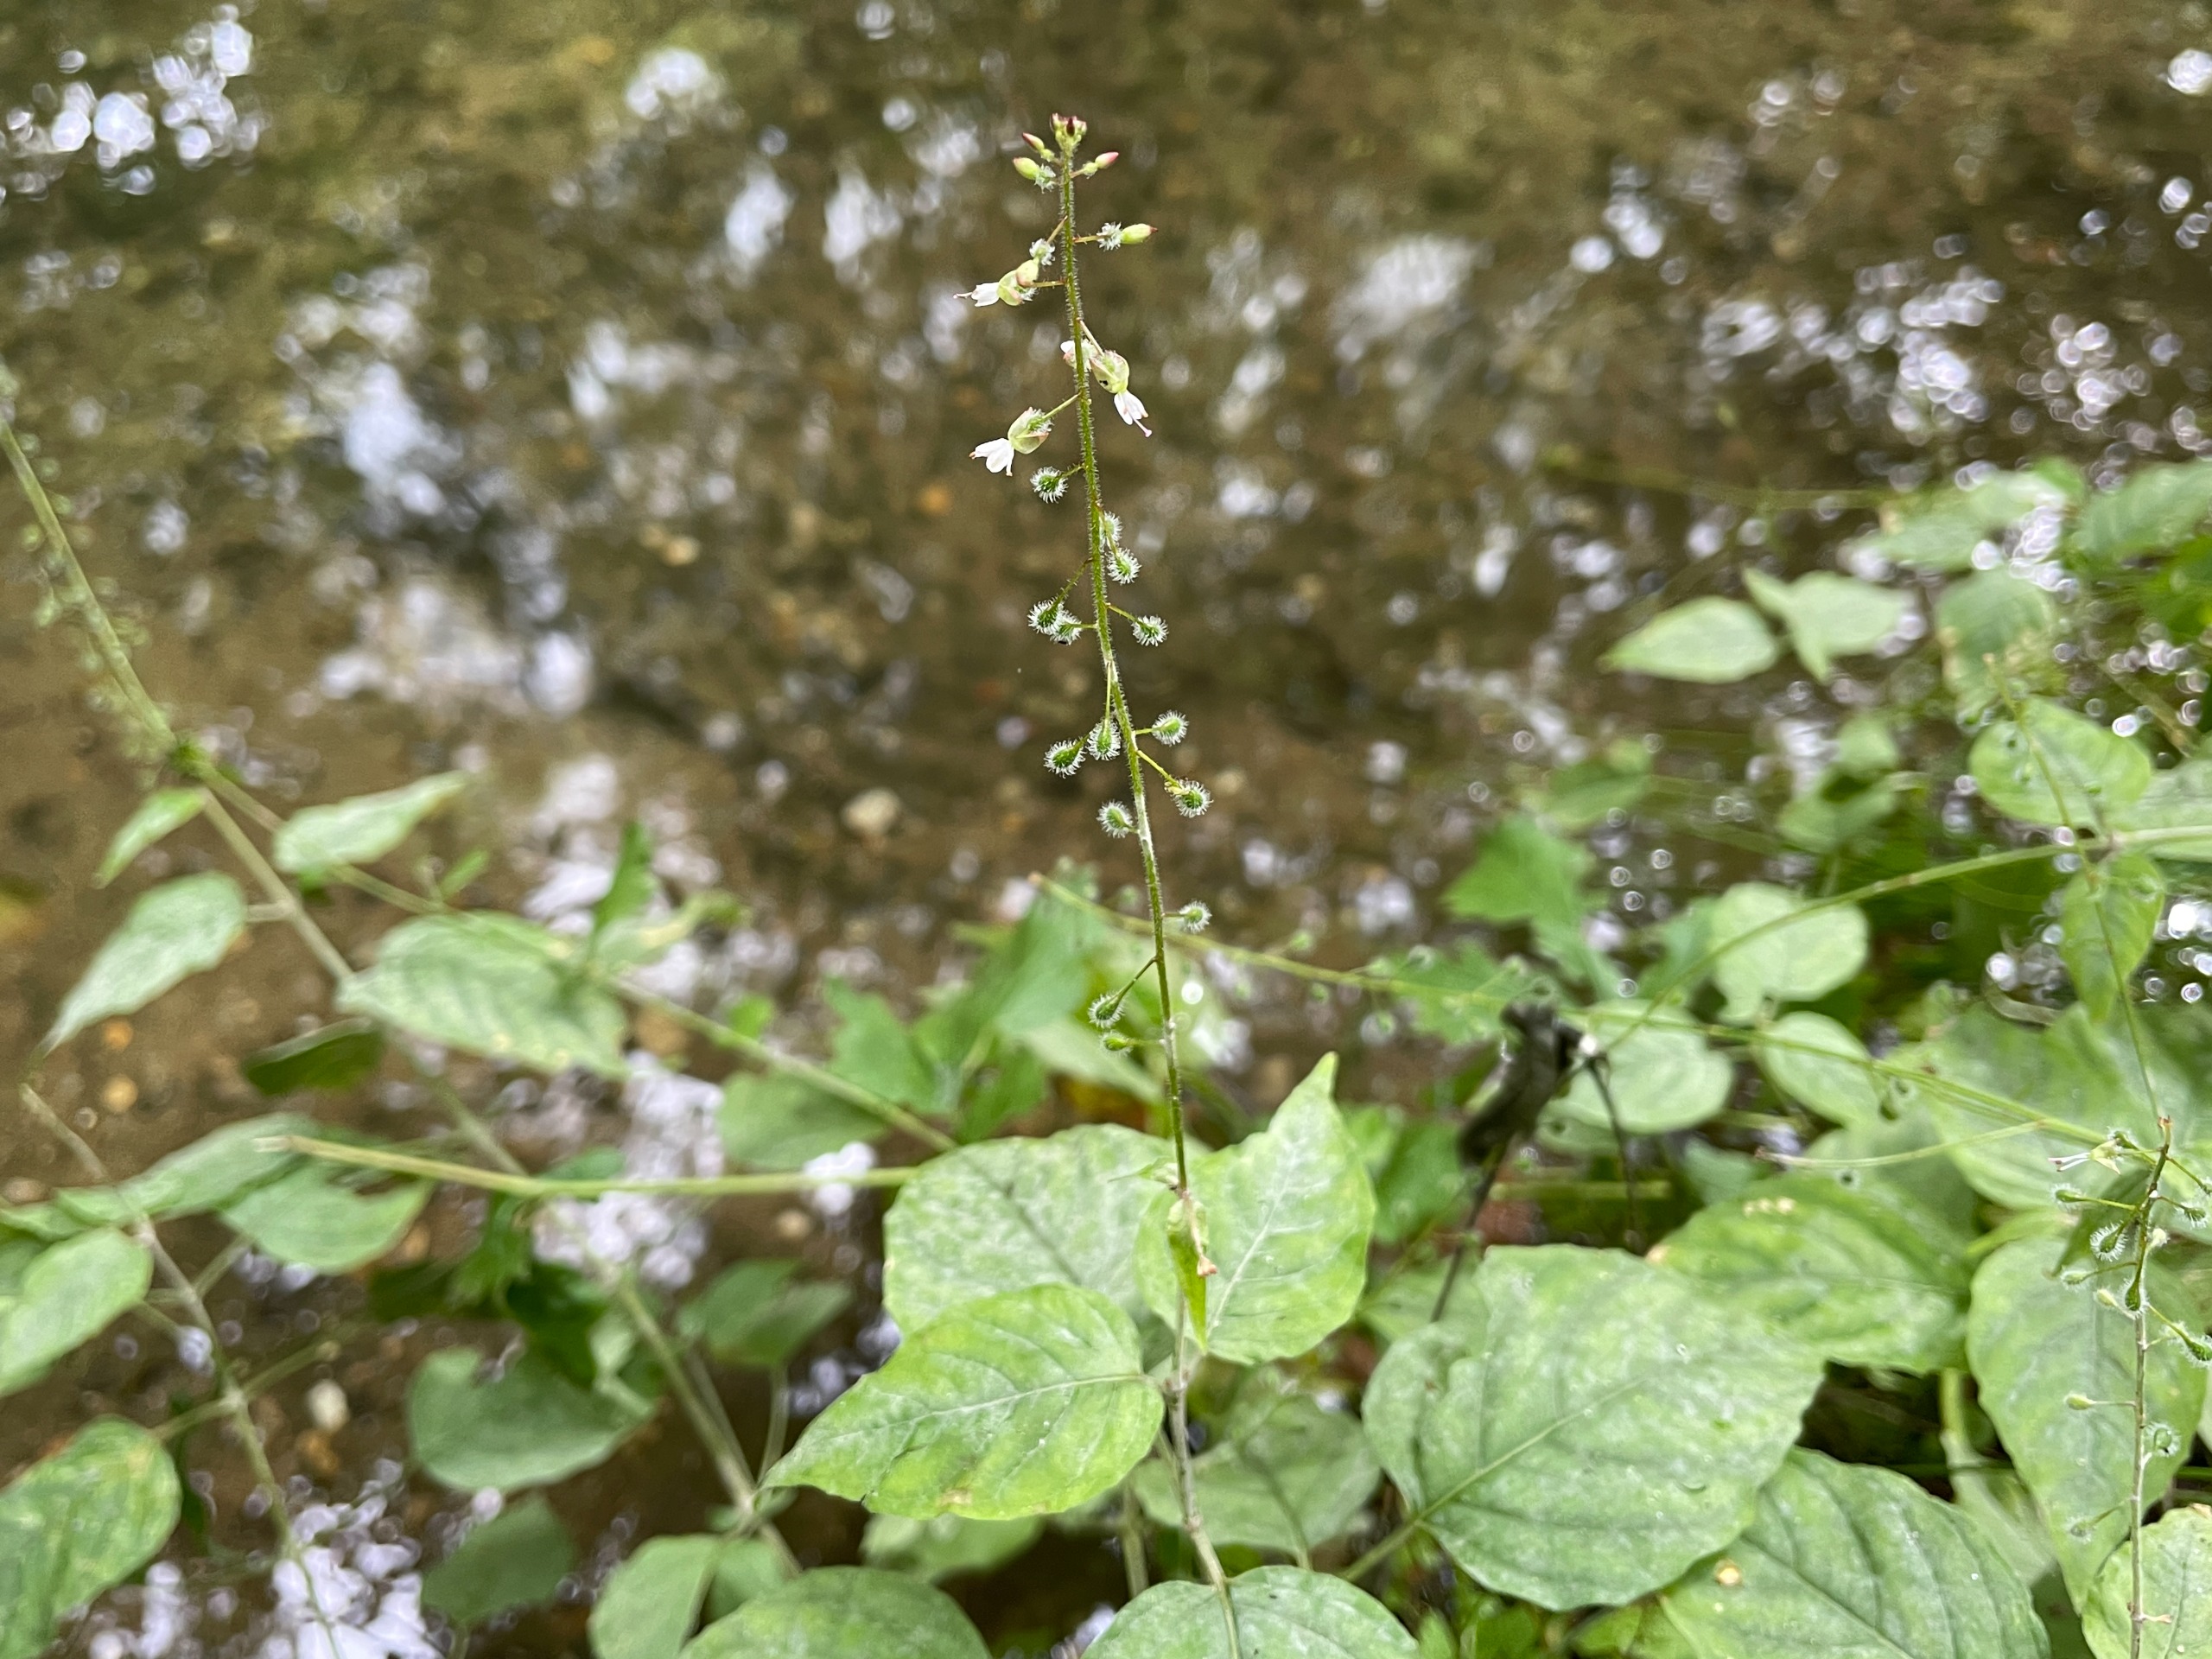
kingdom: Plantae
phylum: Tracheophyta
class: Magnoliopsida
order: Myrtales
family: Onagraceae
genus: Circaea
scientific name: Circaea lutetiana
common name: Dunet steffensurt
